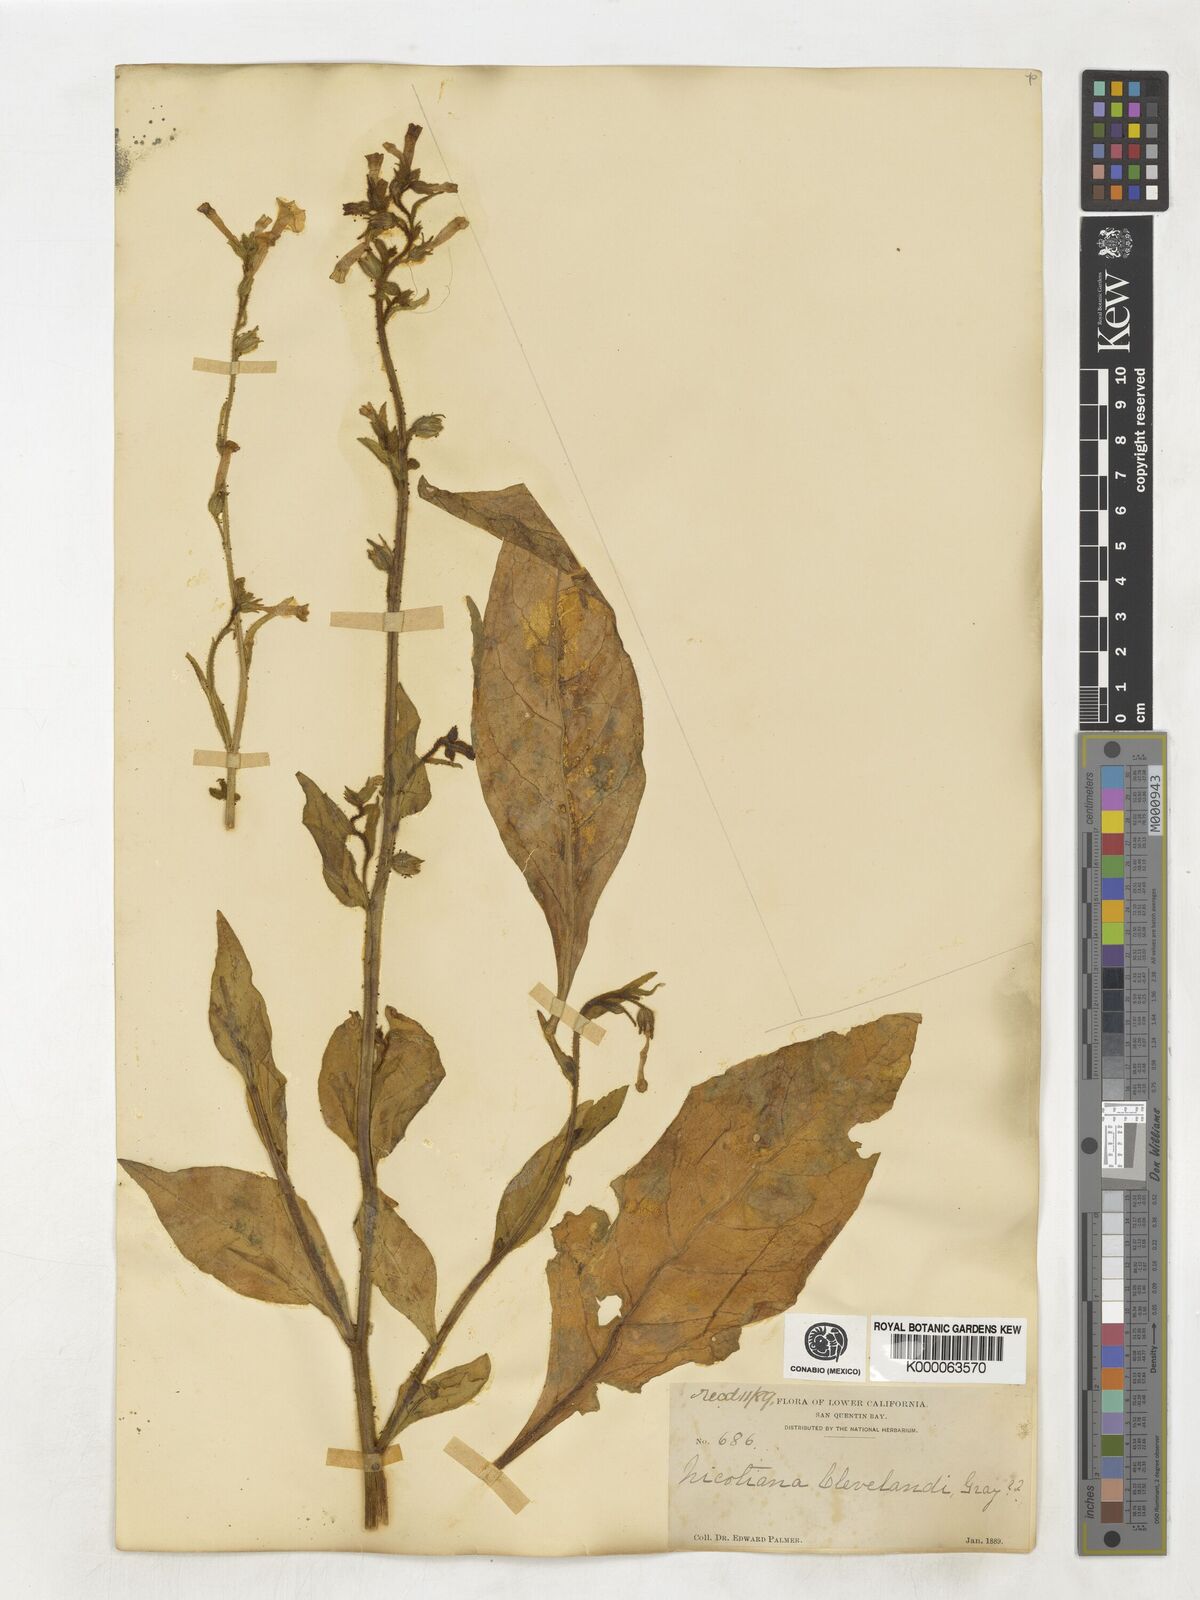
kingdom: Plantae
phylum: Tracheophyta
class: Magnoliopsida
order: Solanales
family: Solanaceae
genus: Nicotiana
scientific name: Nicotiana clevelandii
